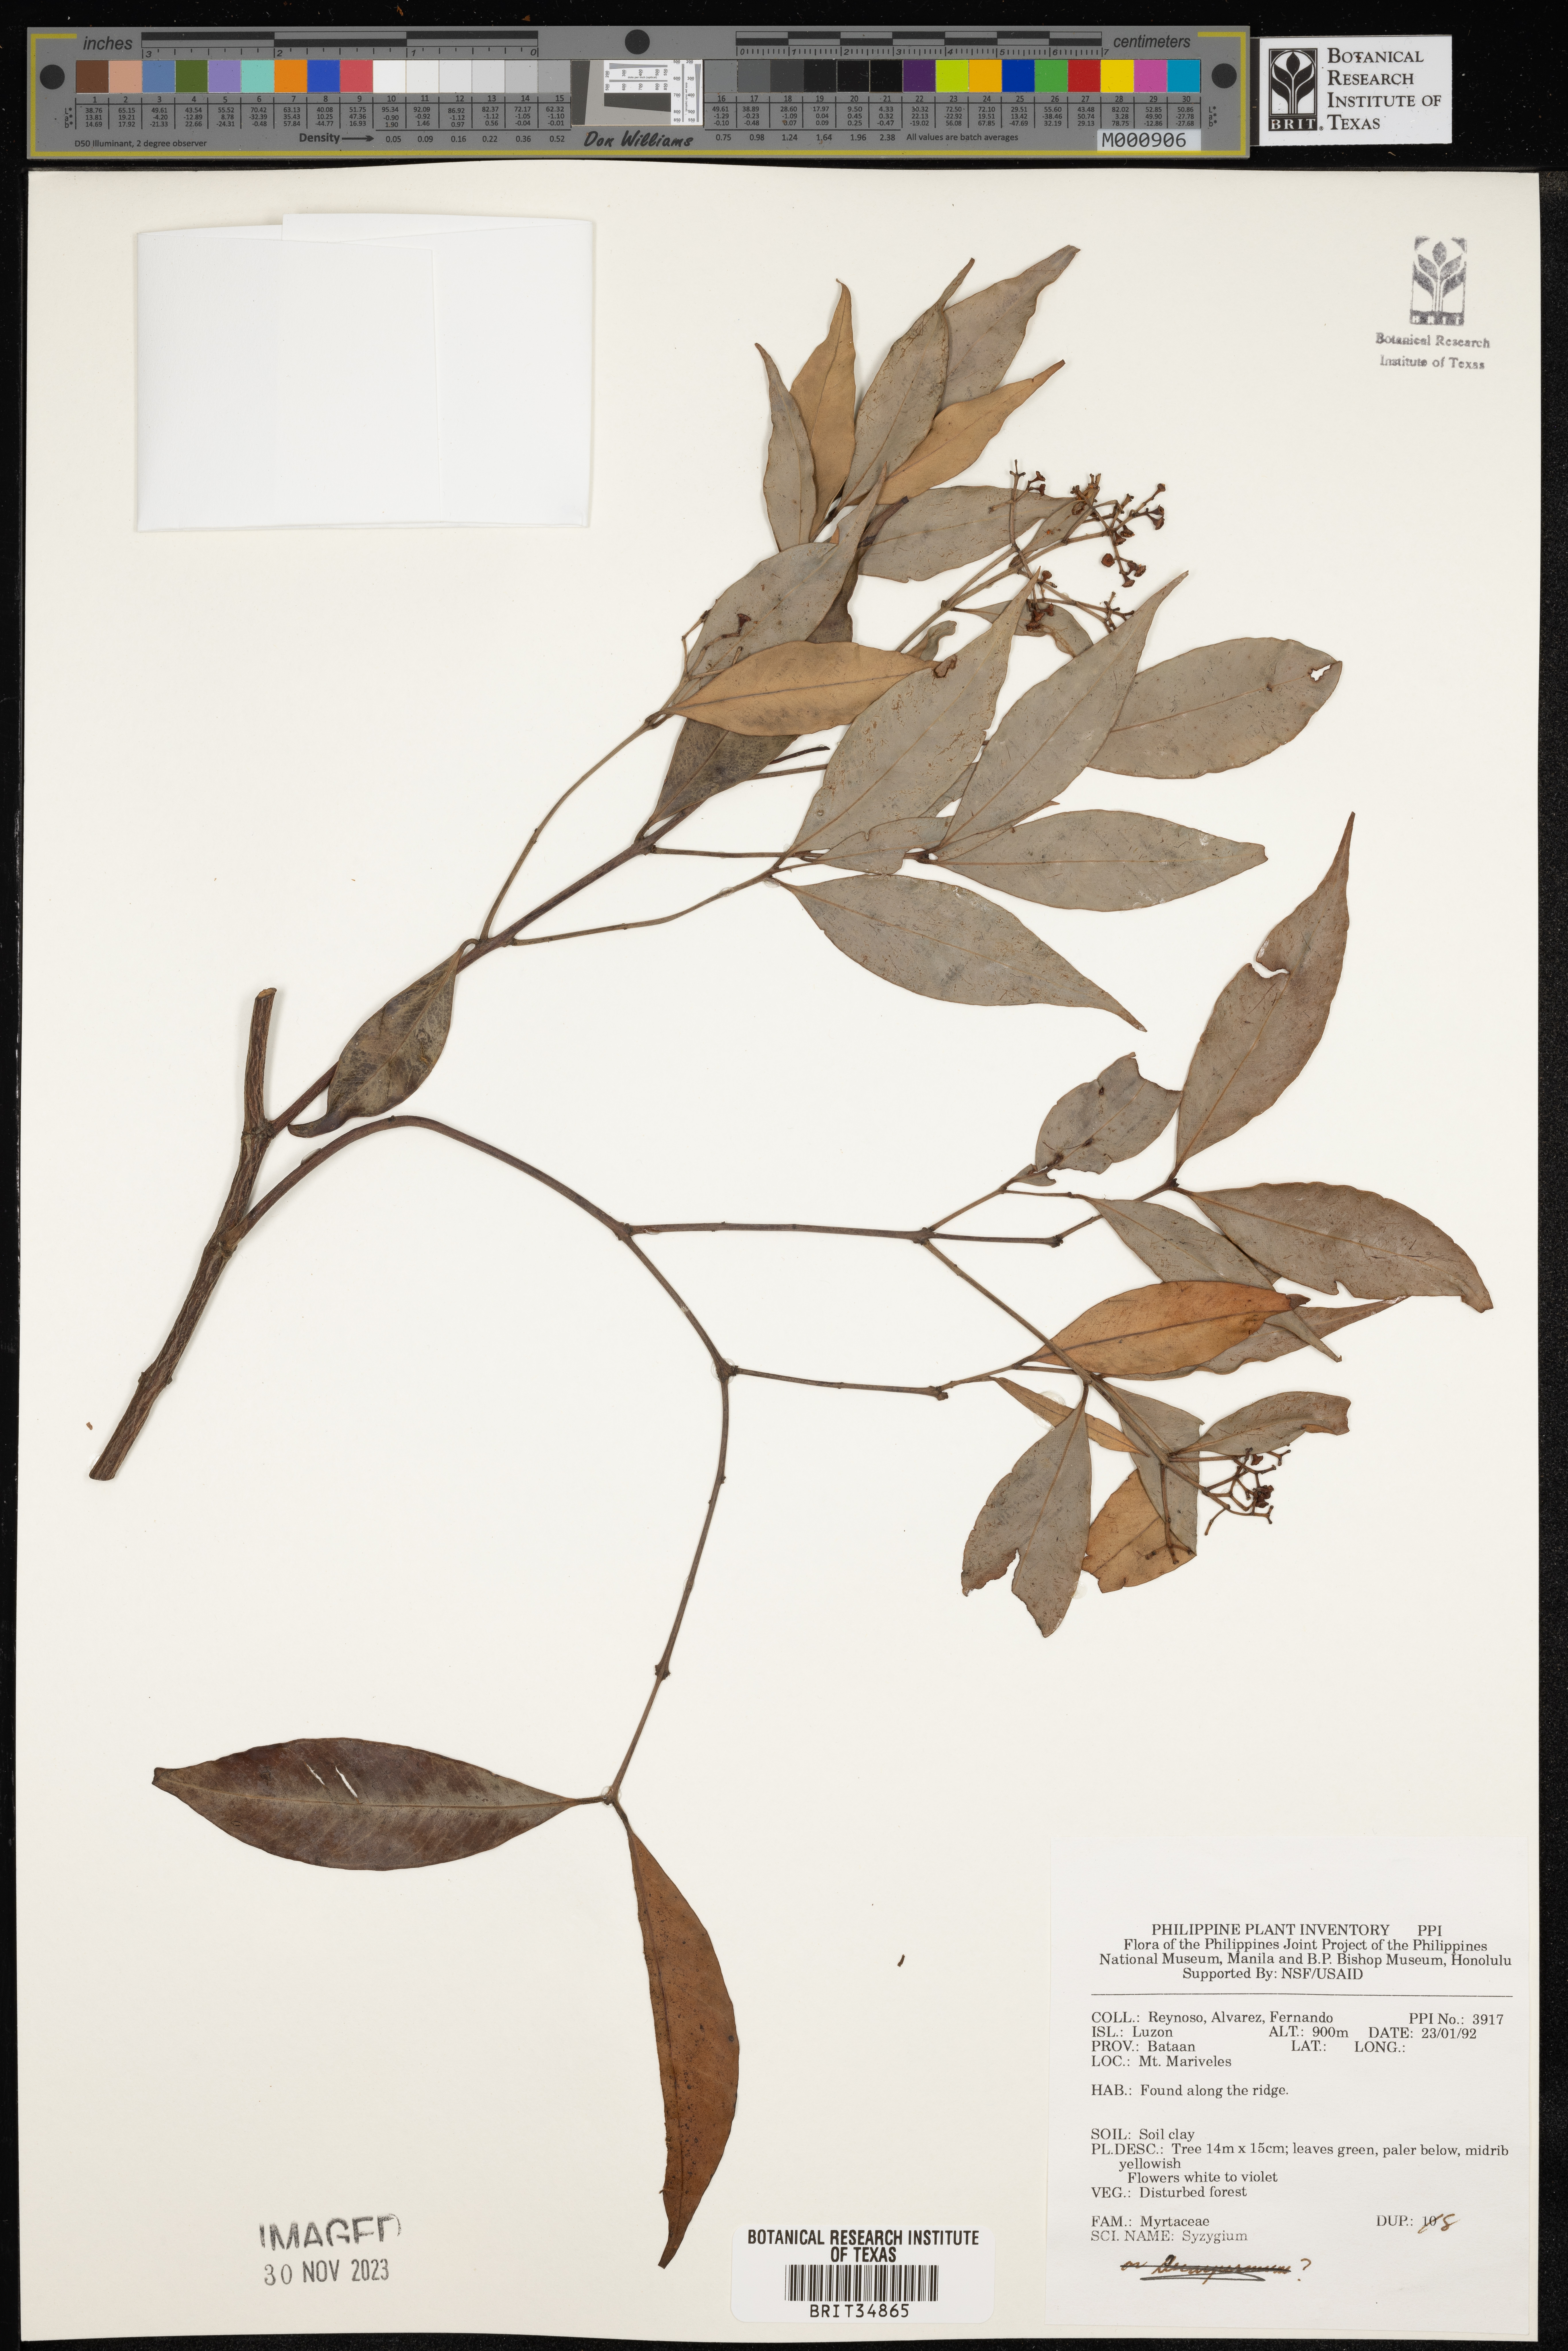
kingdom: Plantae
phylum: Tracheophyta
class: Magnoliopsida
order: Myrtales
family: Myrtaceae
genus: Syzygium
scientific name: Syzygium
